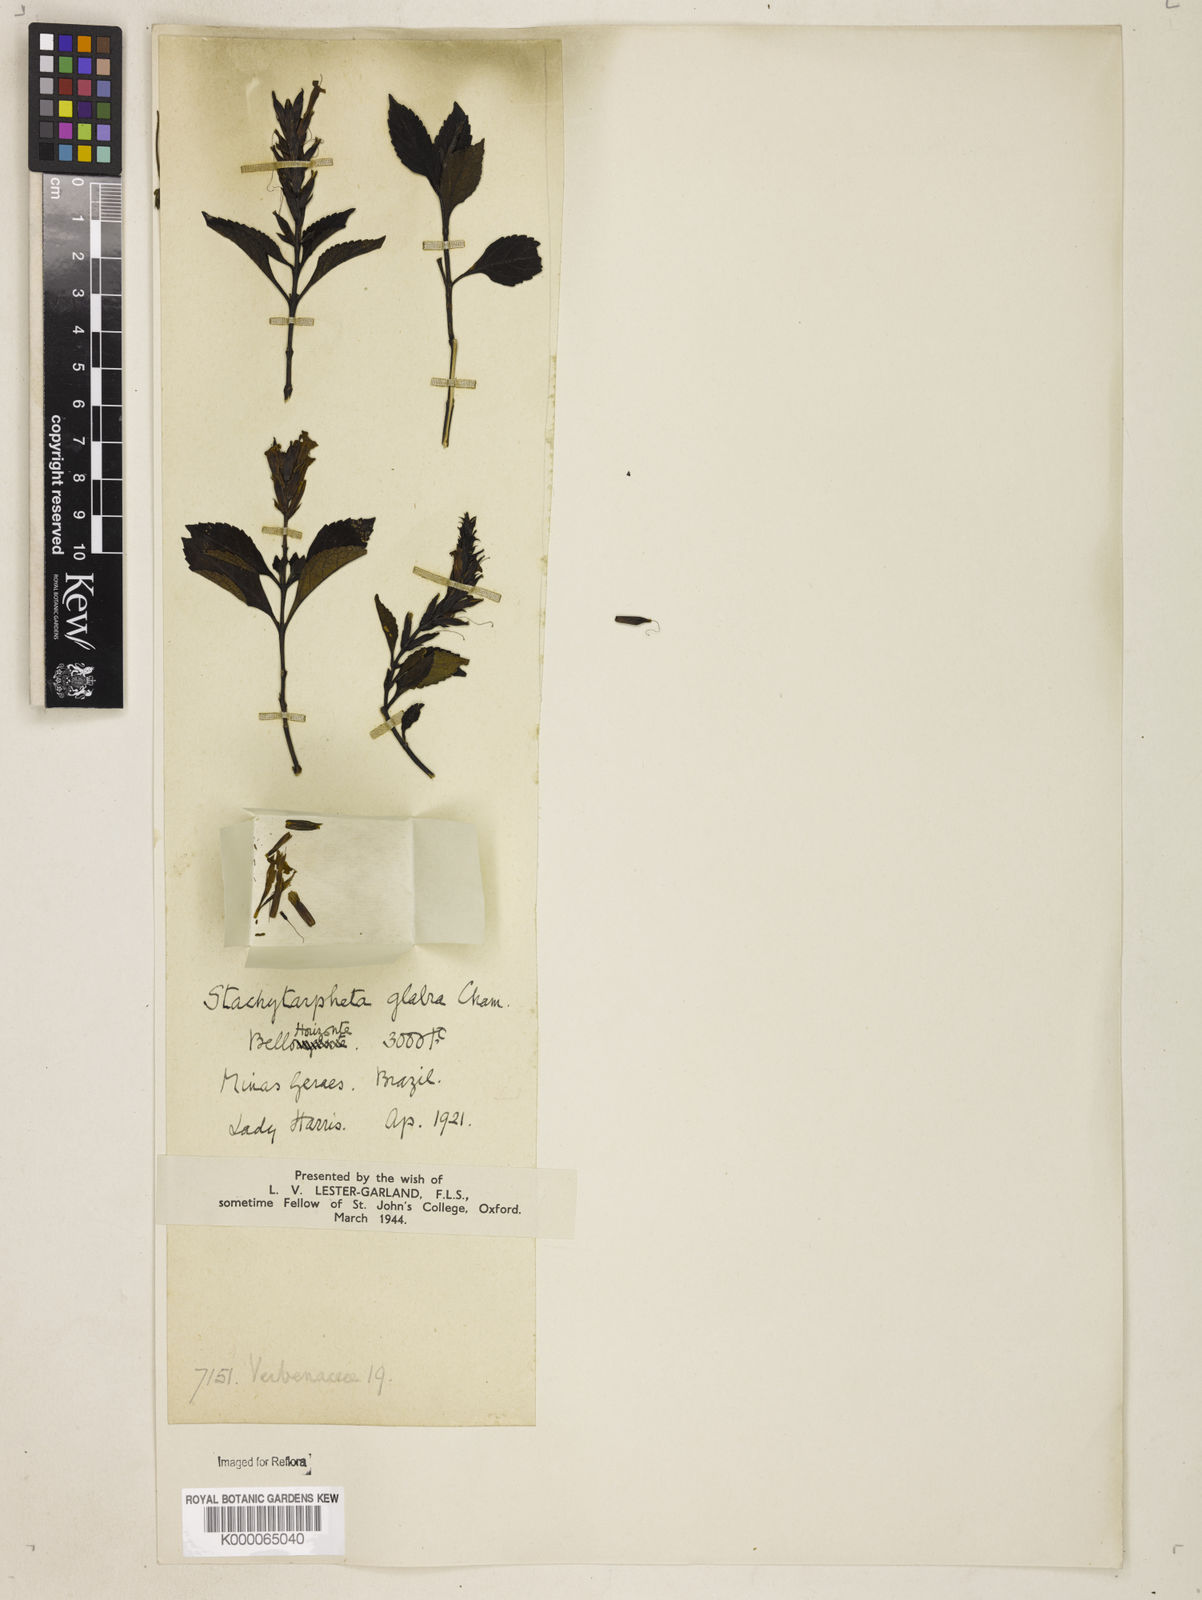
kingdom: Plantae
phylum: Tracheophyta
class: Magnoliopsida
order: Lamiales
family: Verbenaceae
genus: Stachytarpheta
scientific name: Stachytarpheta glabra
